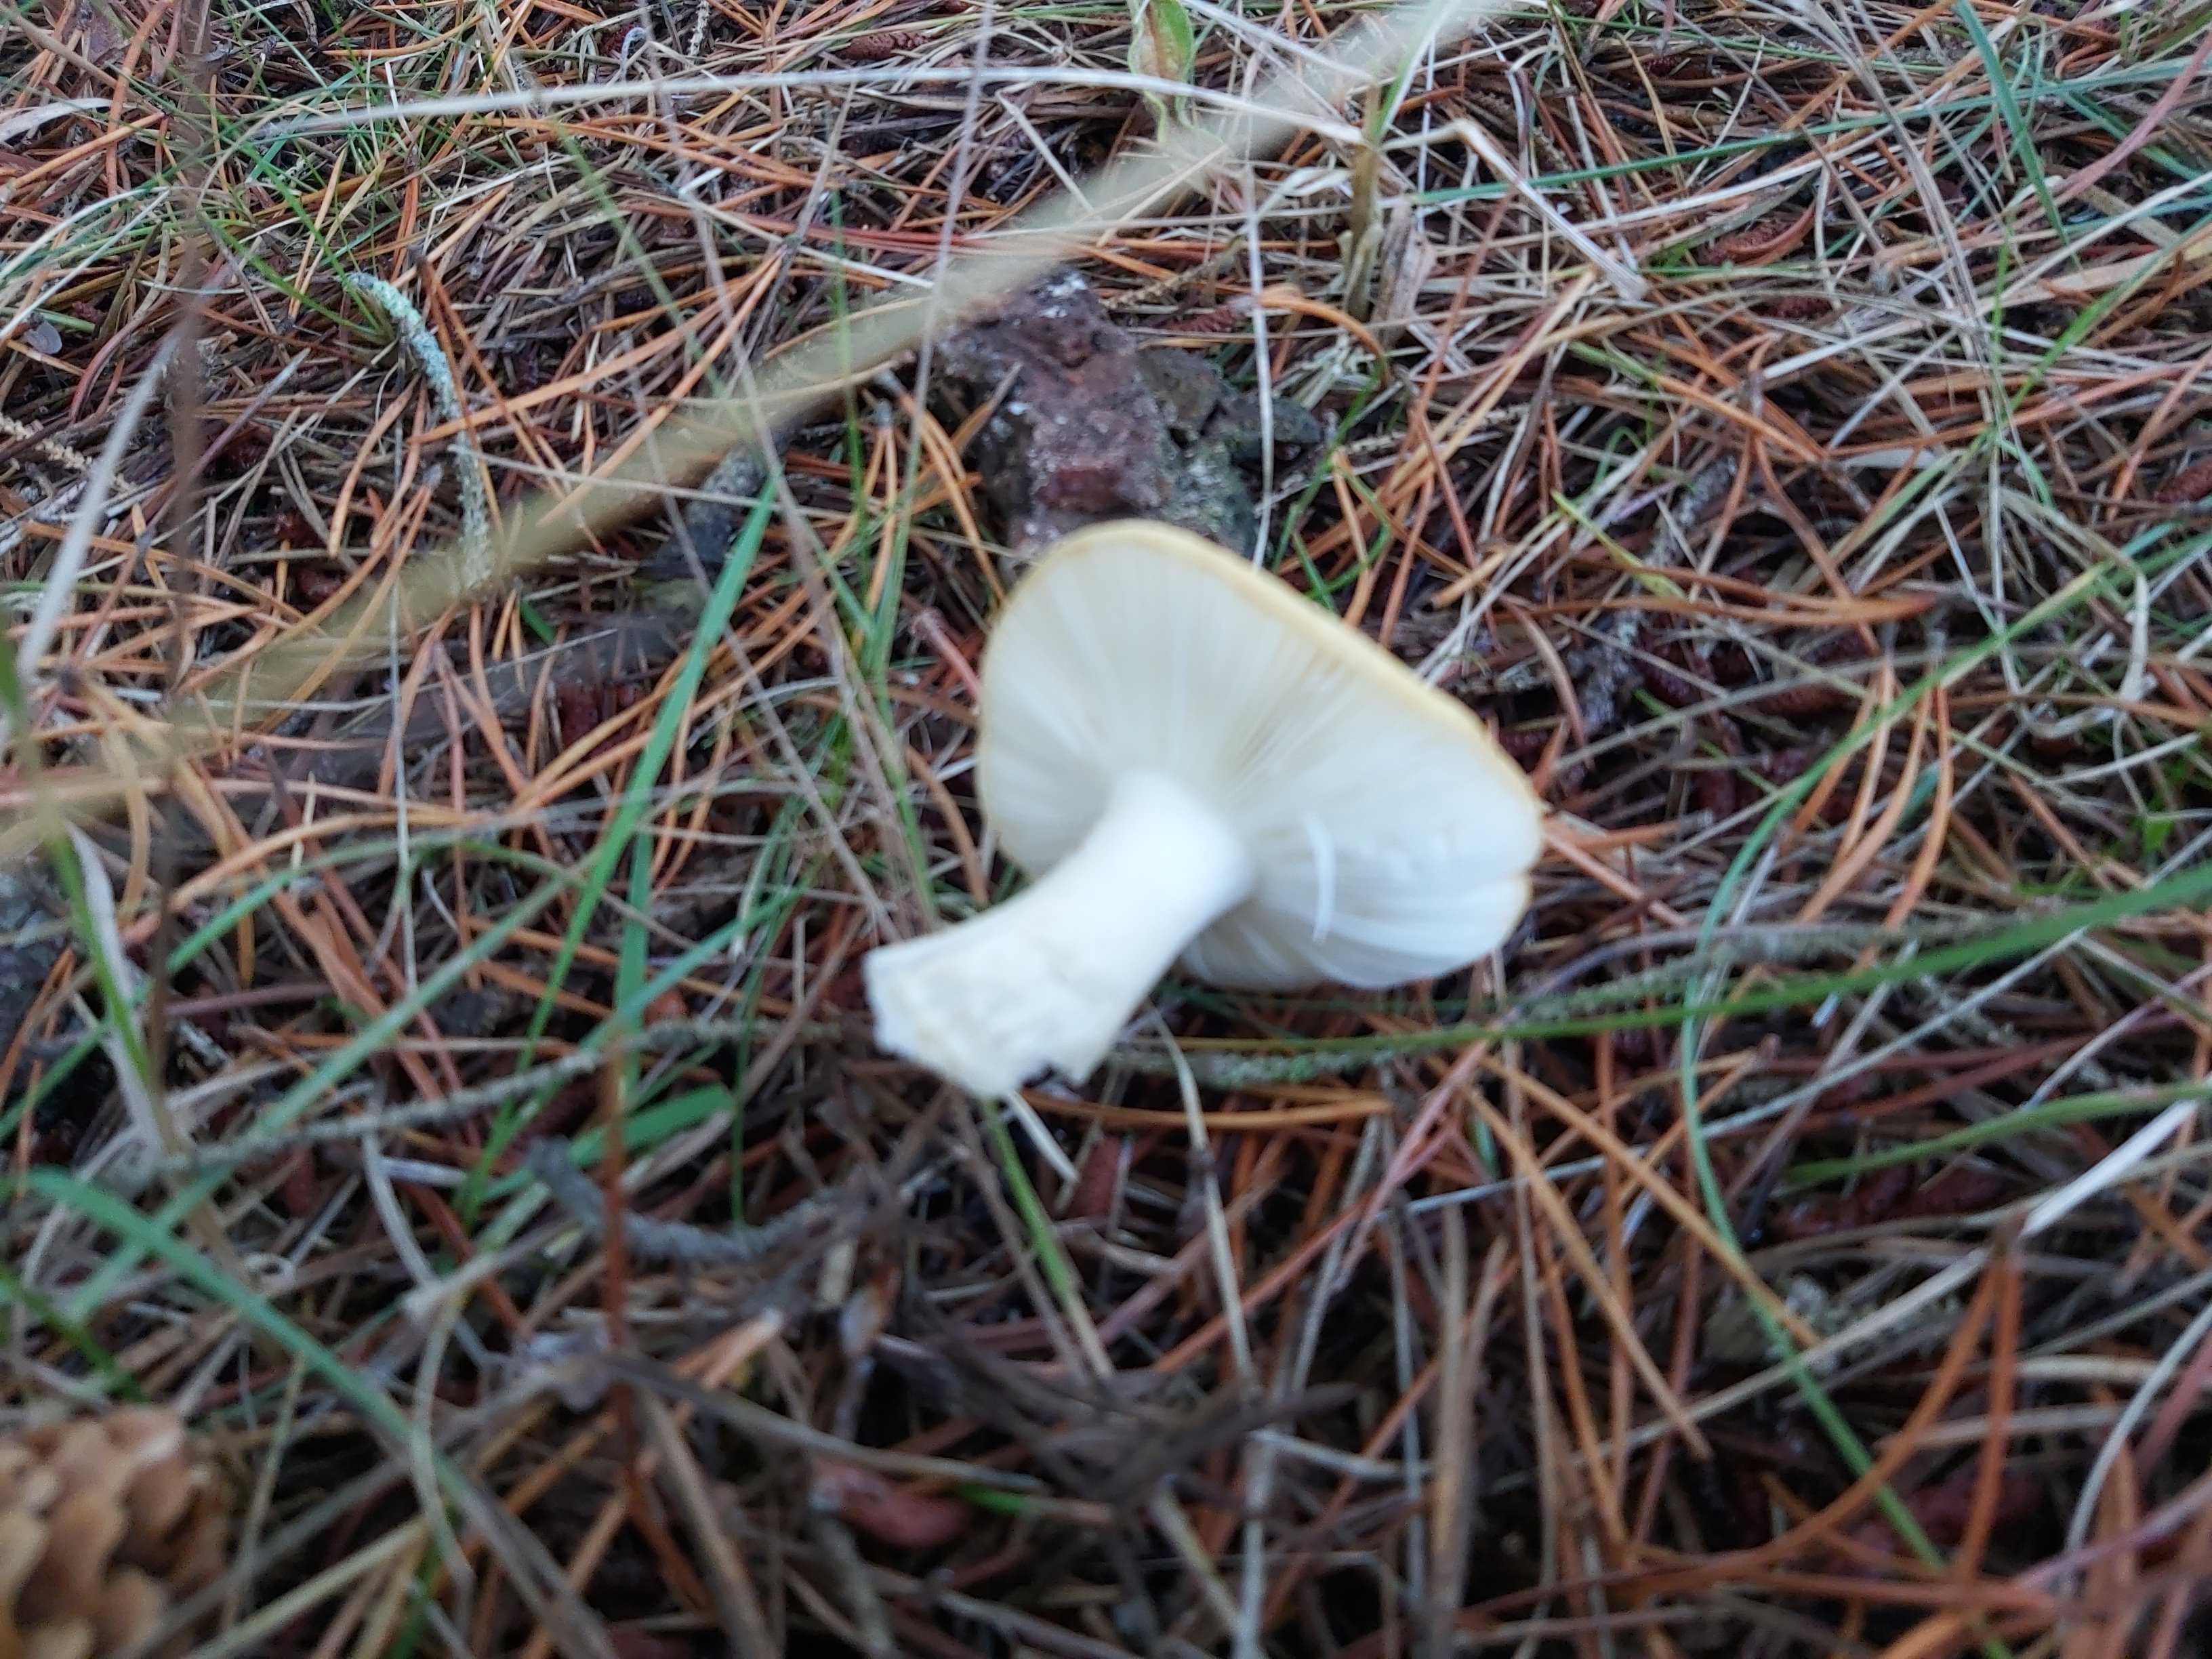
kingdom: Fungi
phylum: Basidiomycota
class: Agaricomycetes
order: Russulales
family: Russulaceae
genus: Russula
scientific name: Russula ochroleuca
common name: okkergul skørhat
